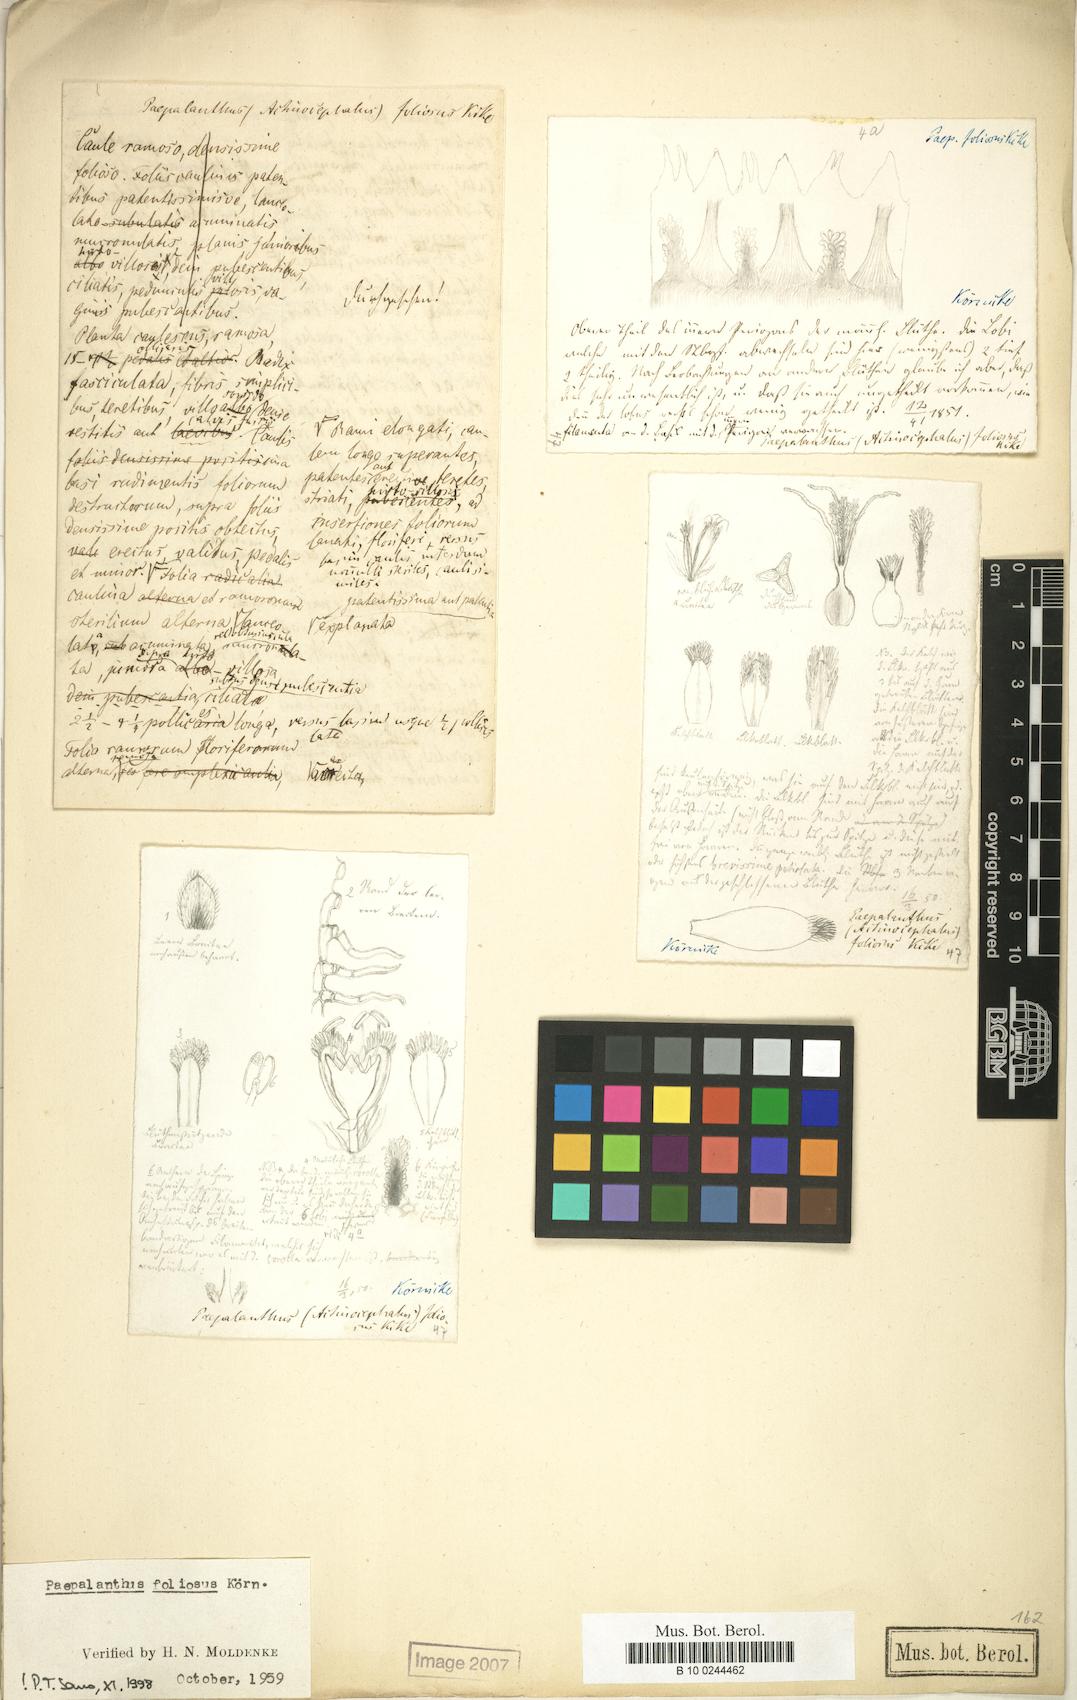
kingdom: Plantae
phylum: Tracheophyta
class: Liliopsida
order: Poales
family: Eriocaulaceae
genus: Paepalanthus
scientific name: Paepalanthus ramosus
